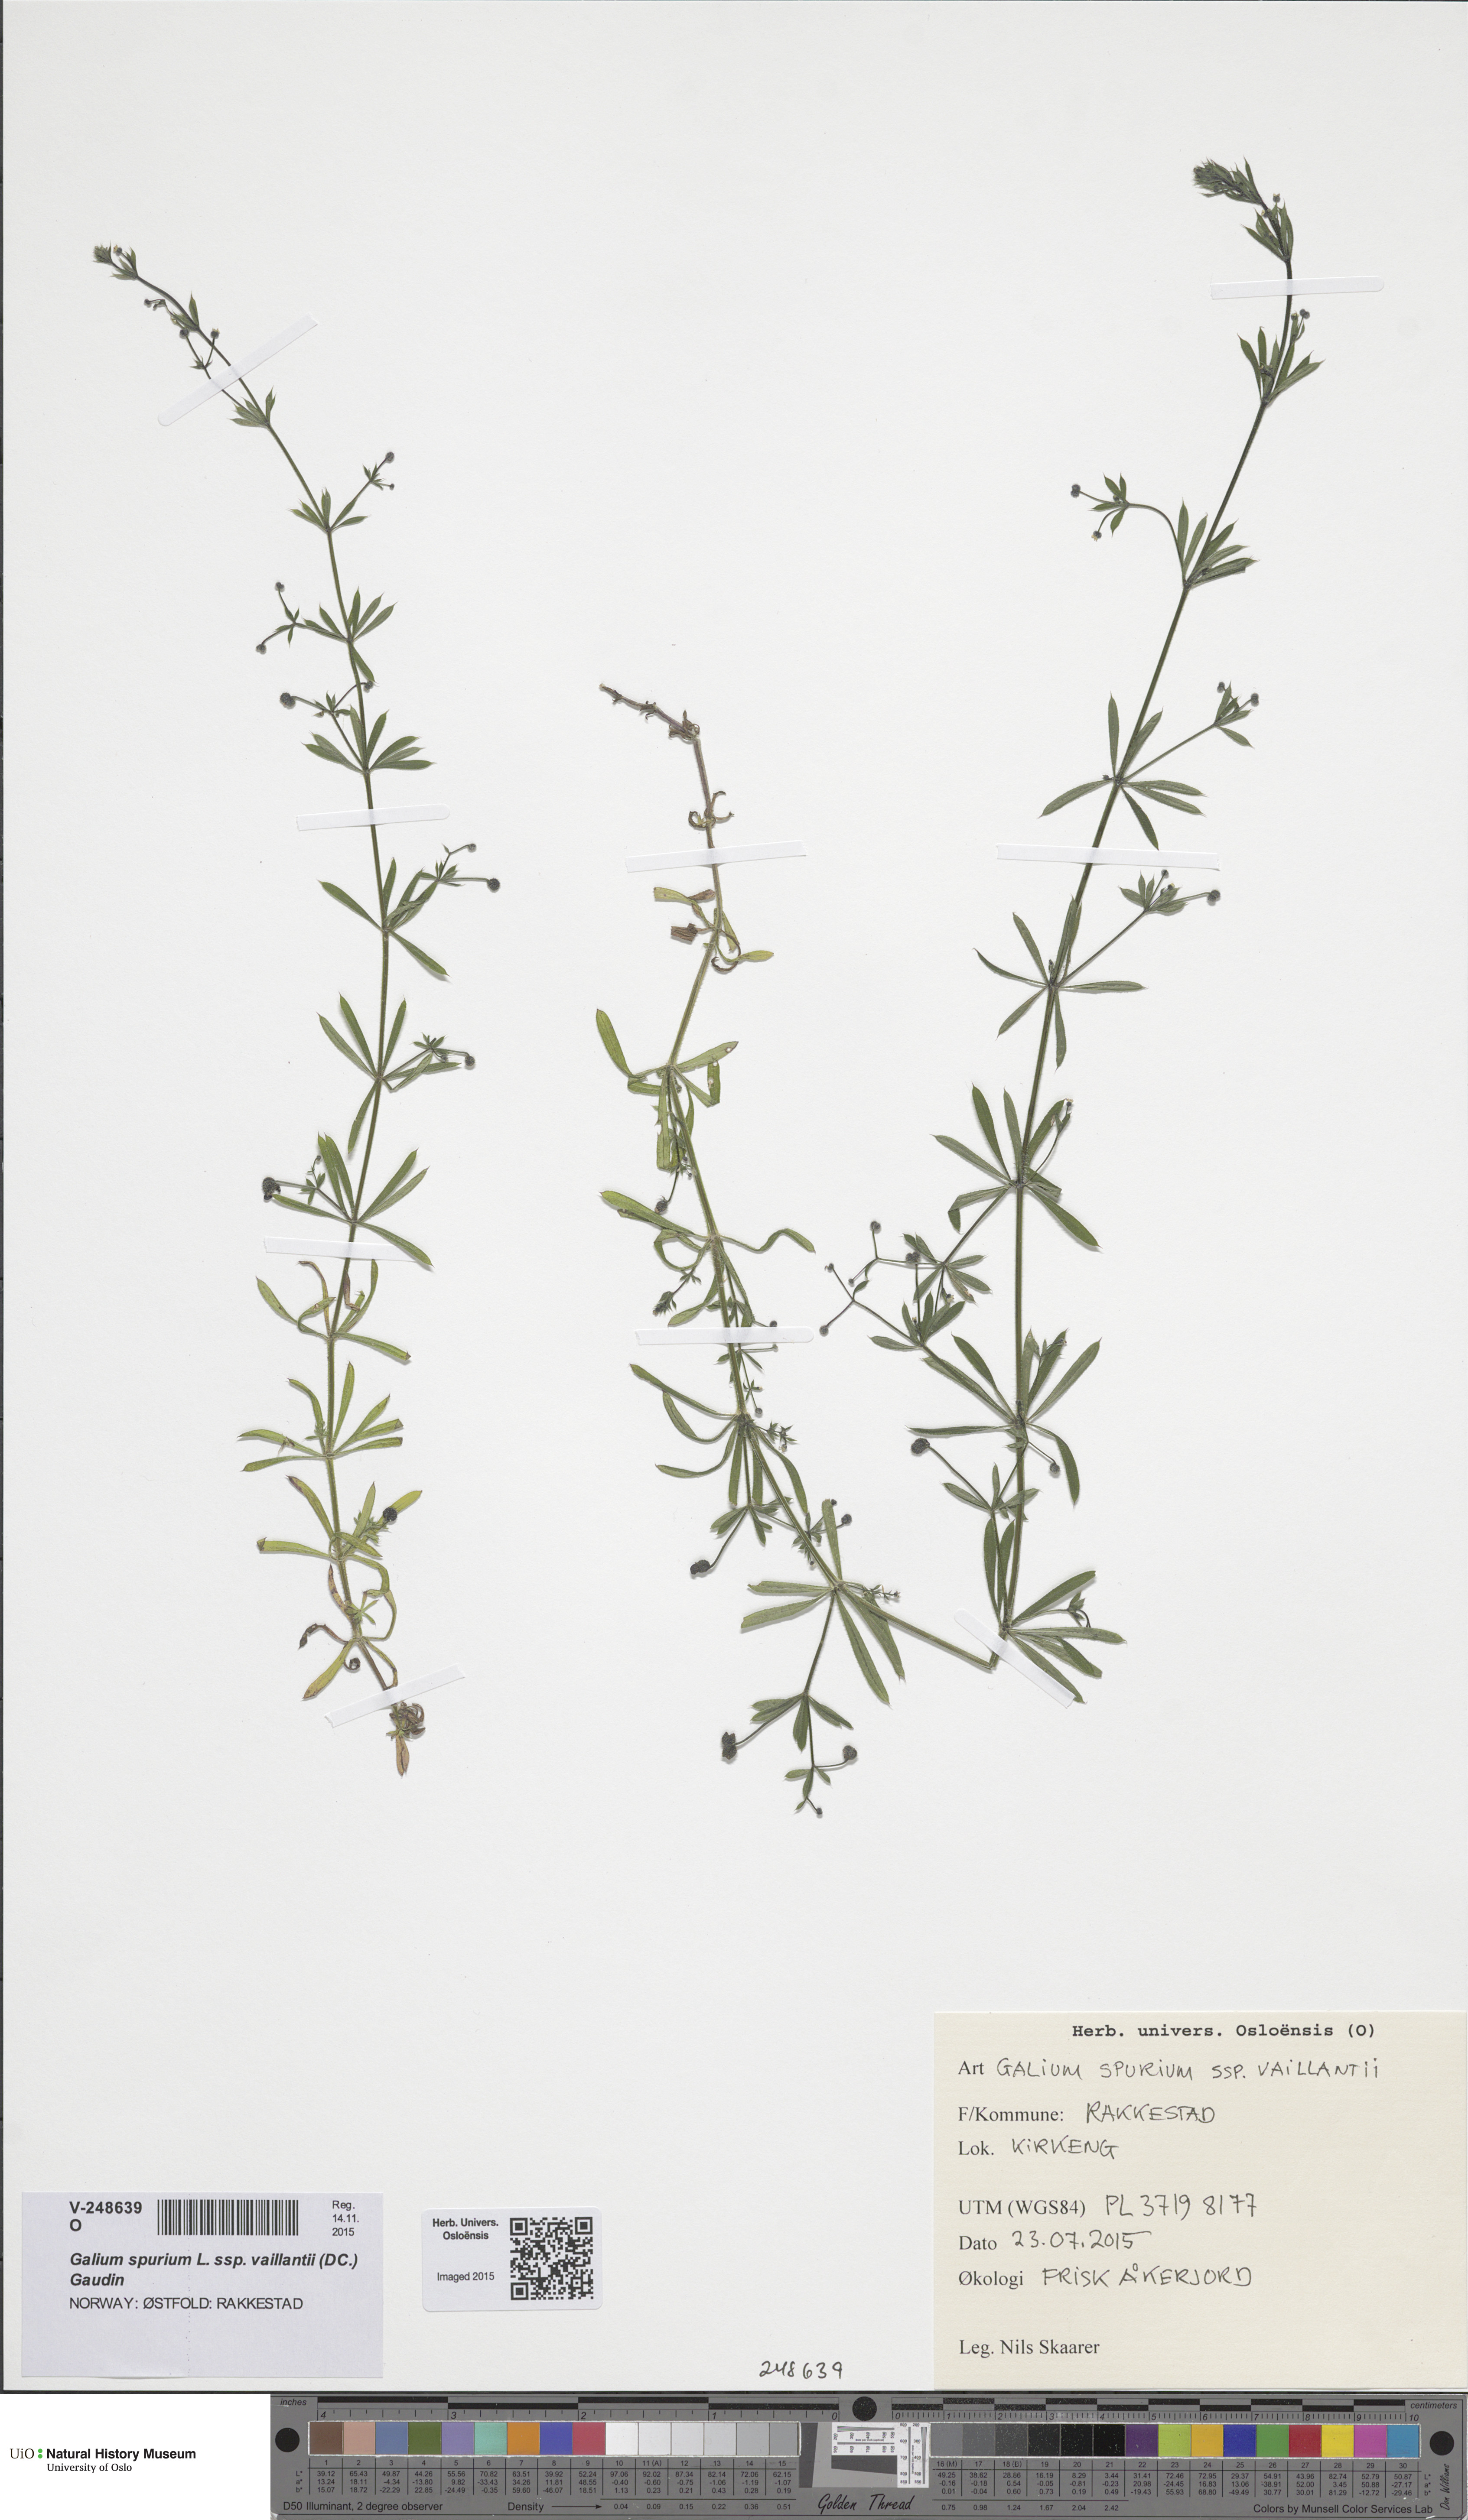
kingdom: Plantae
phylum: Tracheophyta
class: Magnoliopsida
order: Gentianales
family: Rubiaceae
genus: Galium
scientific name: Galium aparine
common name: Cleavers
